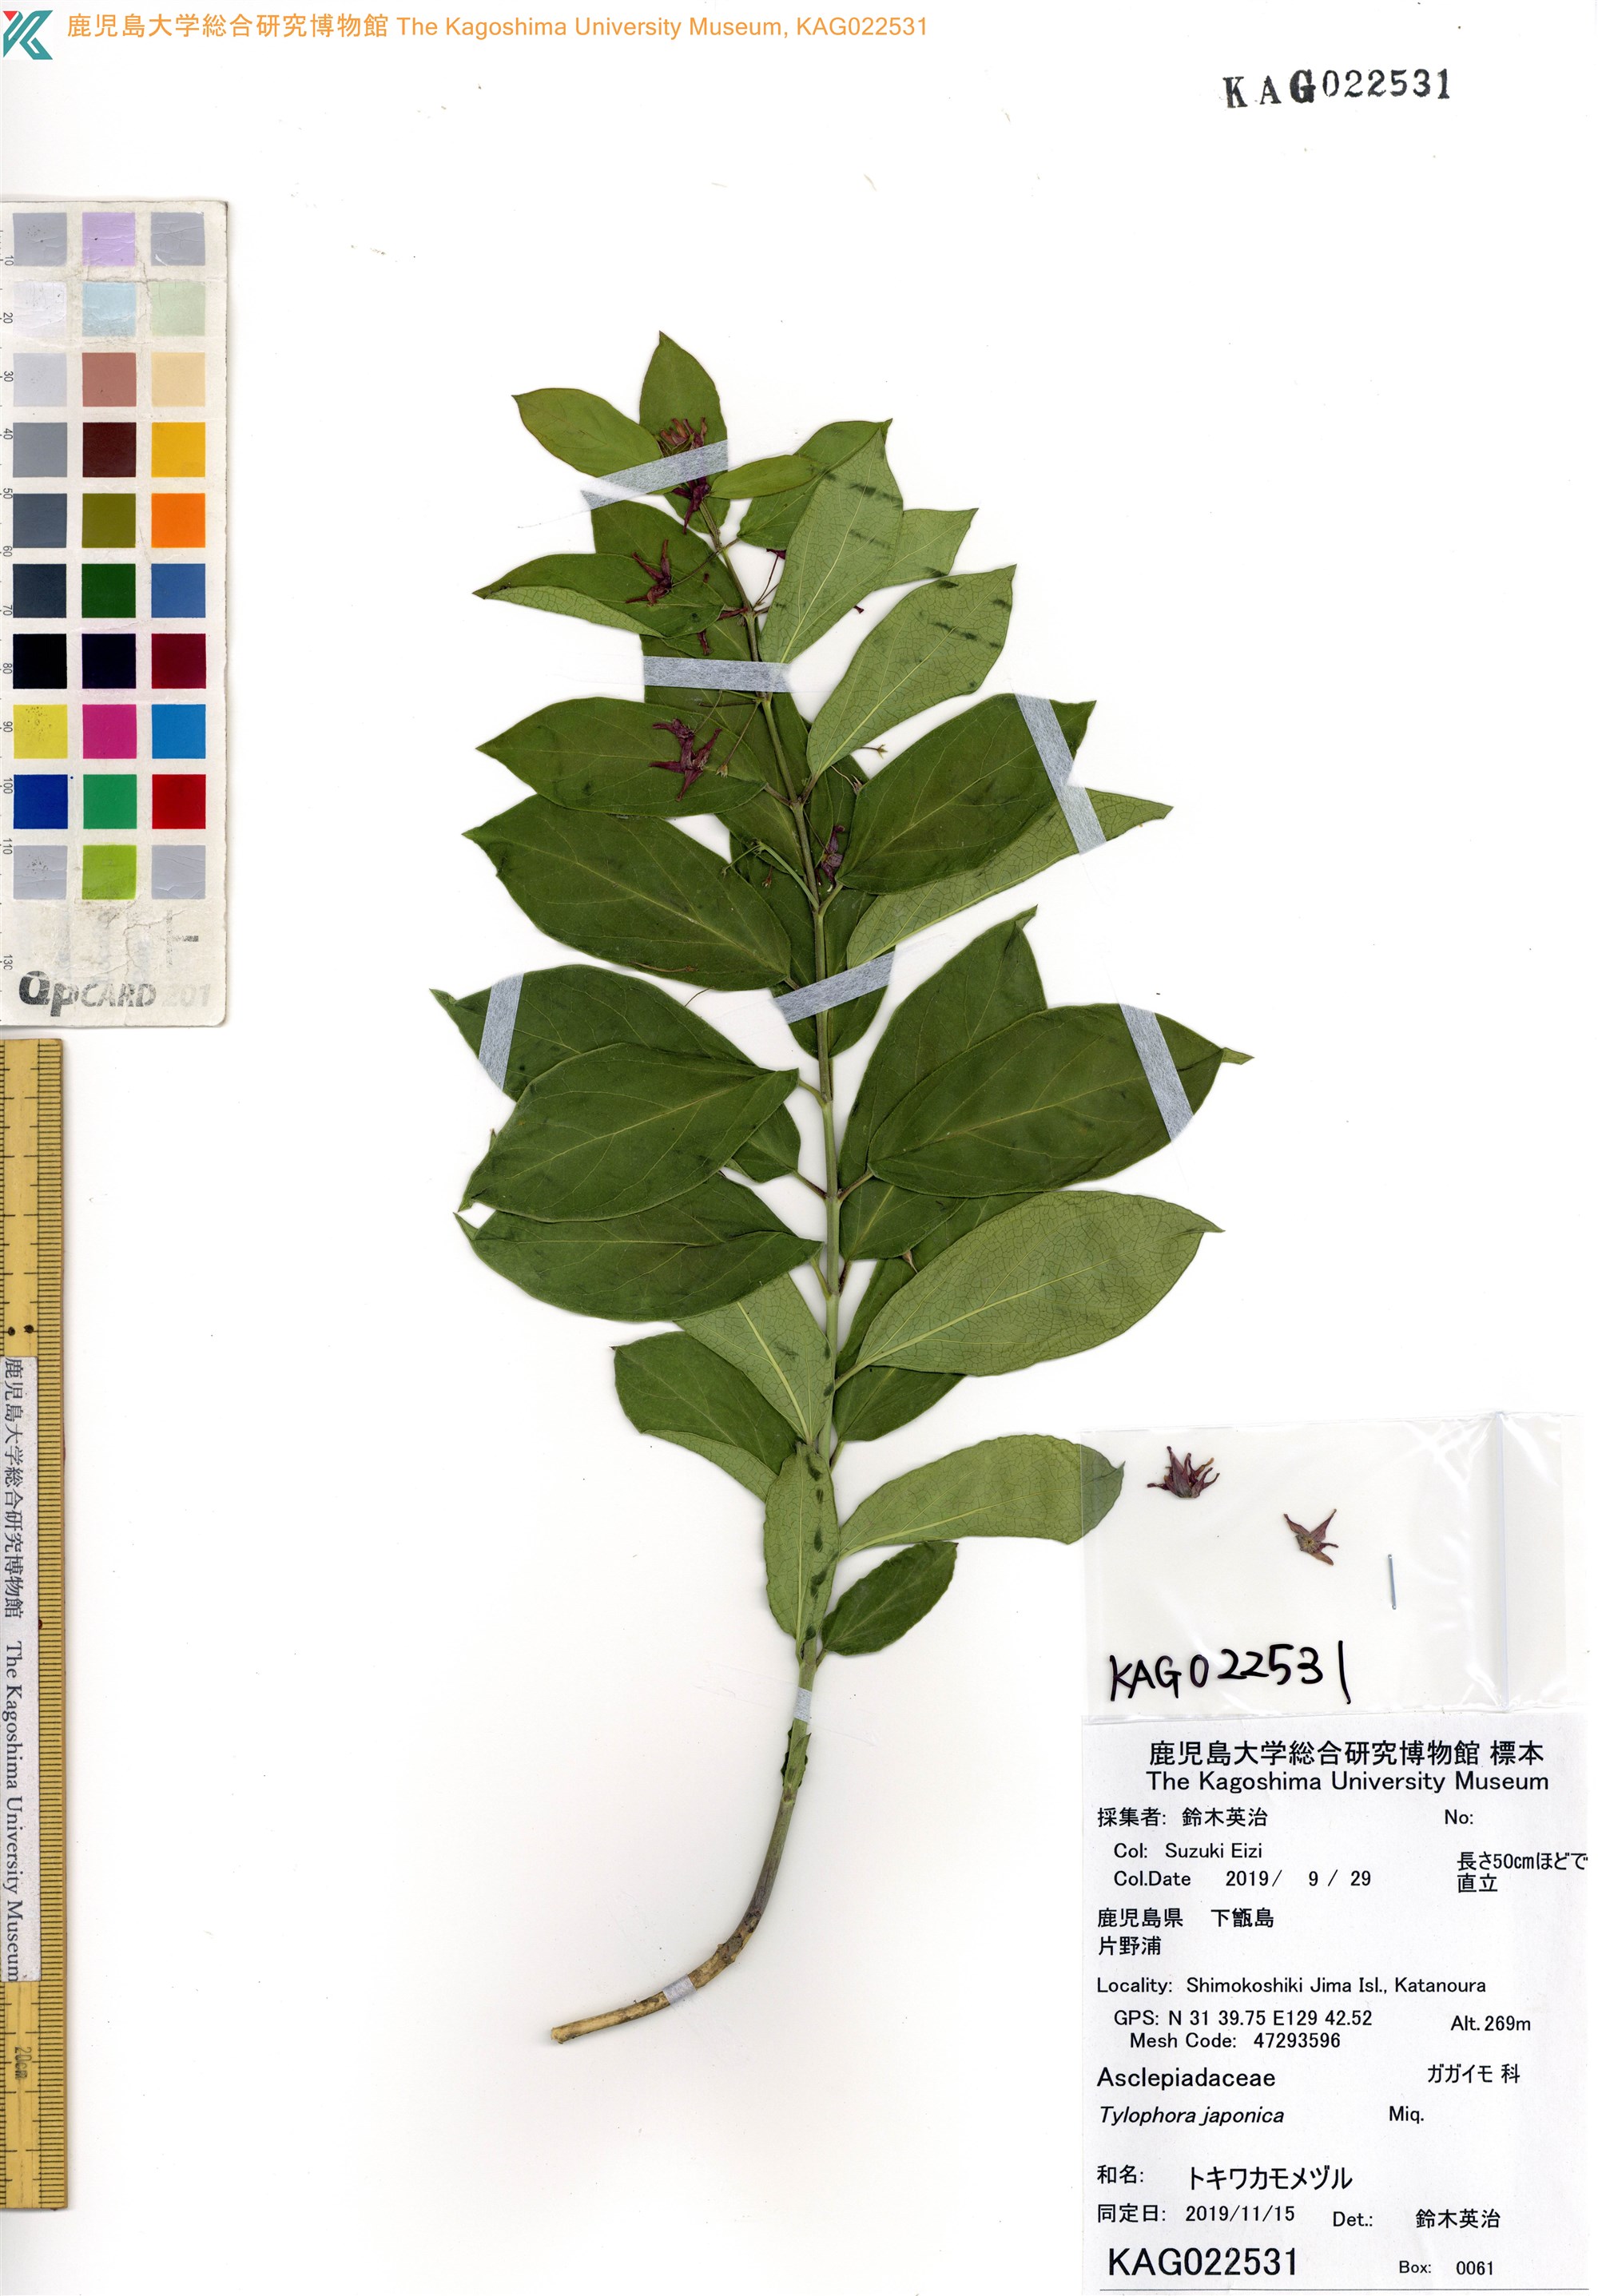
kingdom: Plantae
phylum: Tracheophyta
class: Magnoliopsida
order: Gentianales
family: Apocynaceae
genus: Vincetoxicum
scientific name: Vincetoxicum japonicum
